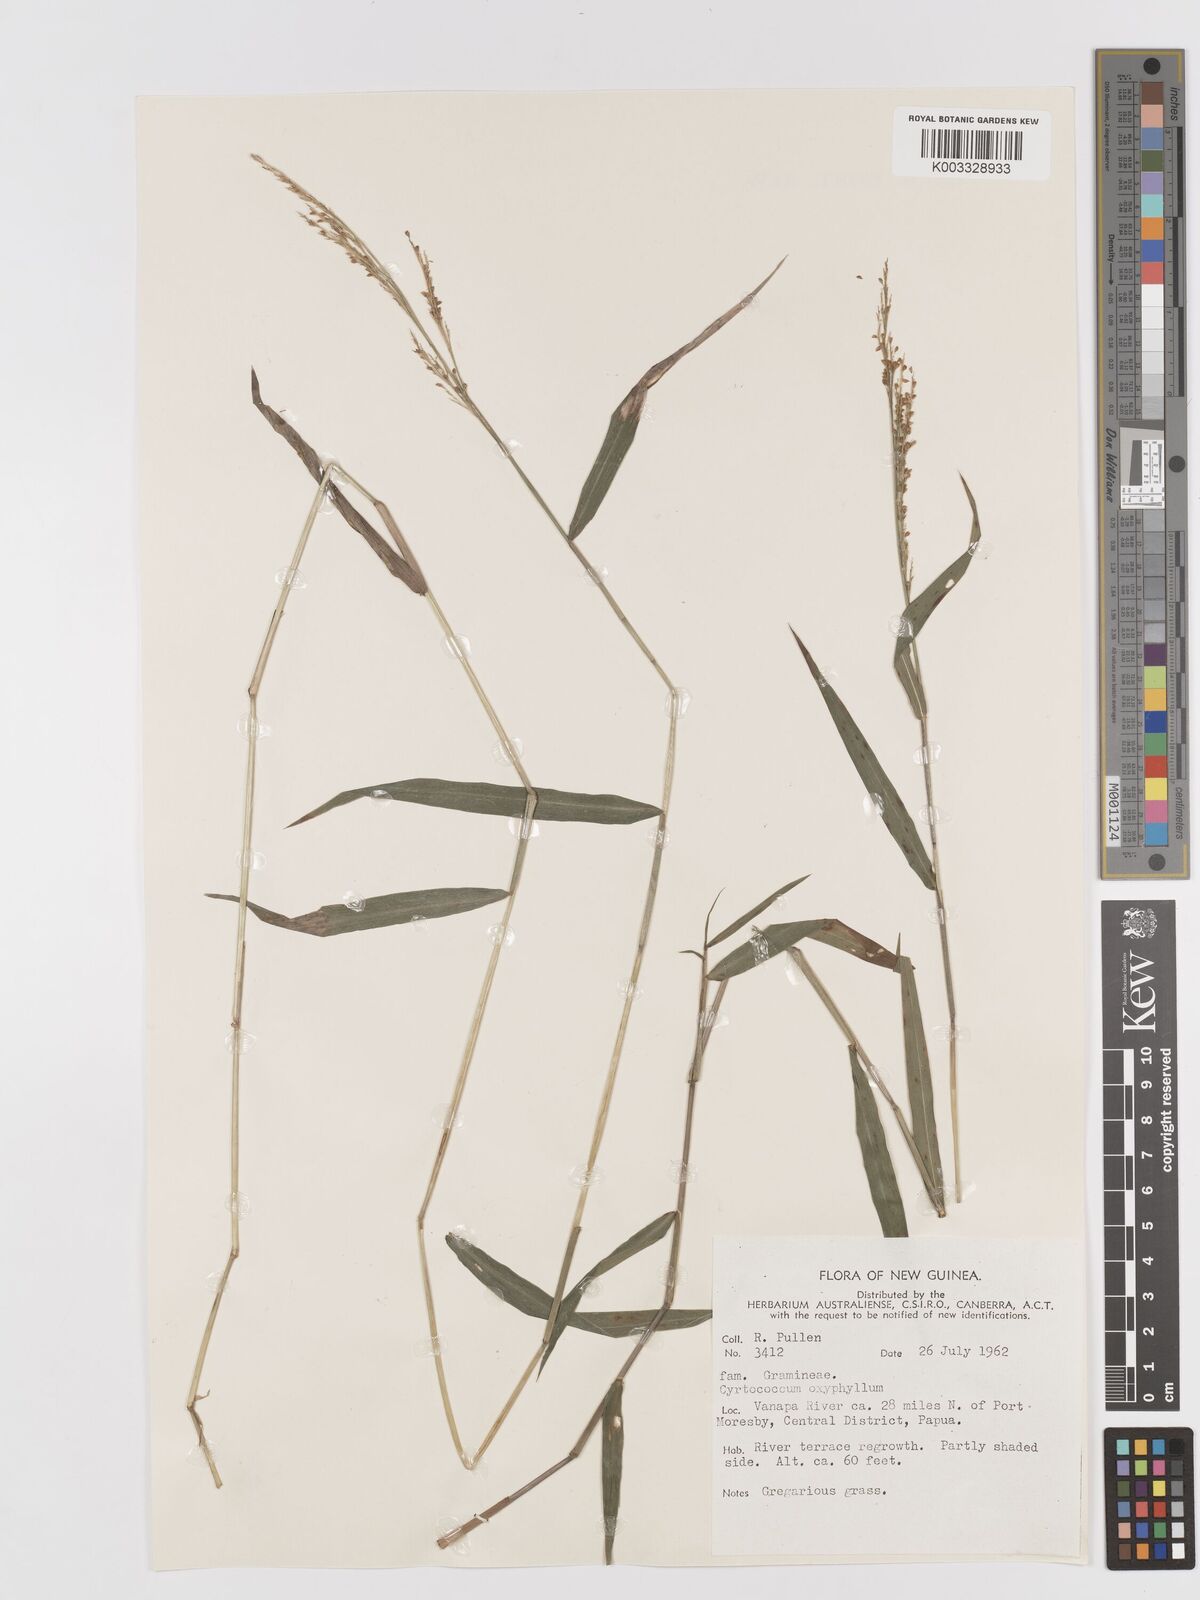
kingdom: Plantae
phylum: Tracheophyta
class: Liliopsida
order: Poales
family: Poaceae
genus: Cyrtococcum
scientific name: Cyrtococcum oxyphyllum
